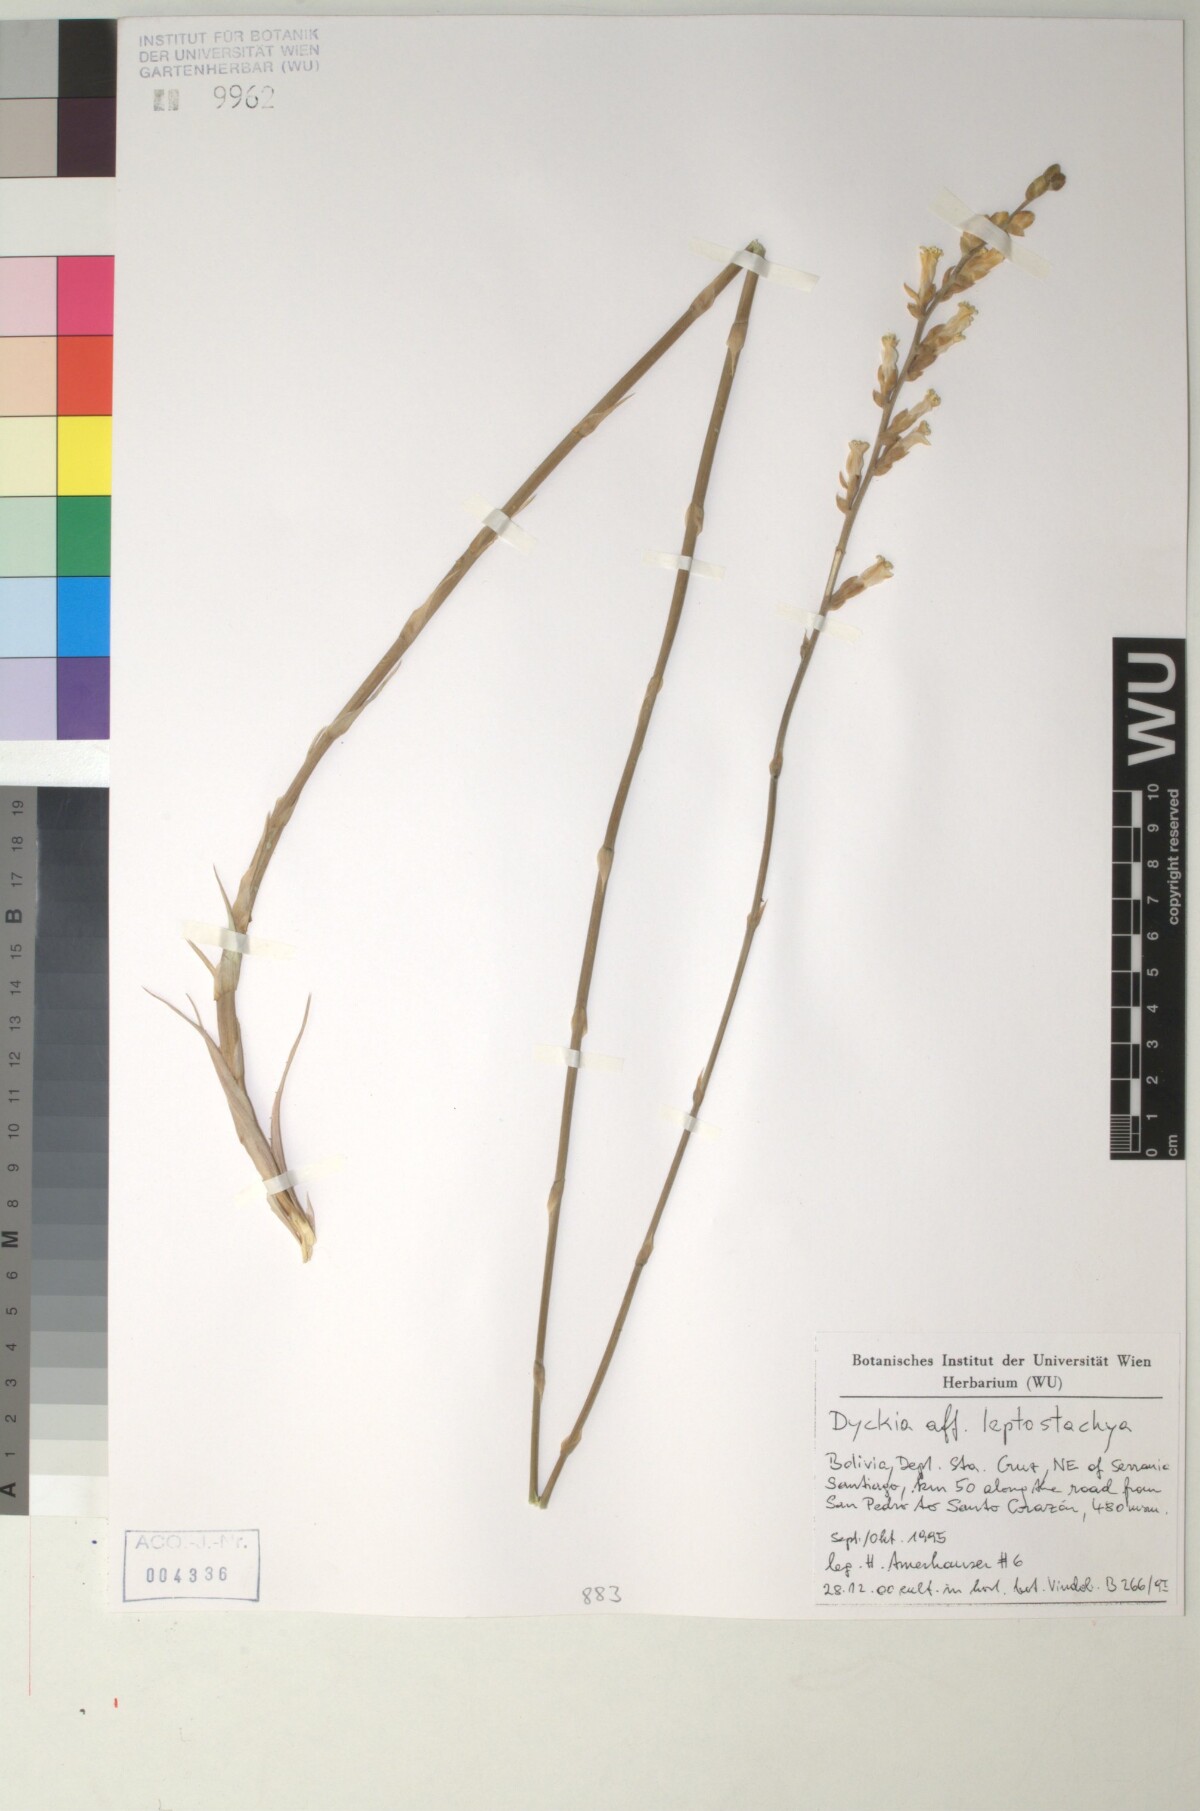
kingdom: Plantae
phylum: Tracheophyta
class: Liliopsida
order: Poales
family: Bromeliaceae
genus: Dyckia
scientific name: Dyckia leptostachya
